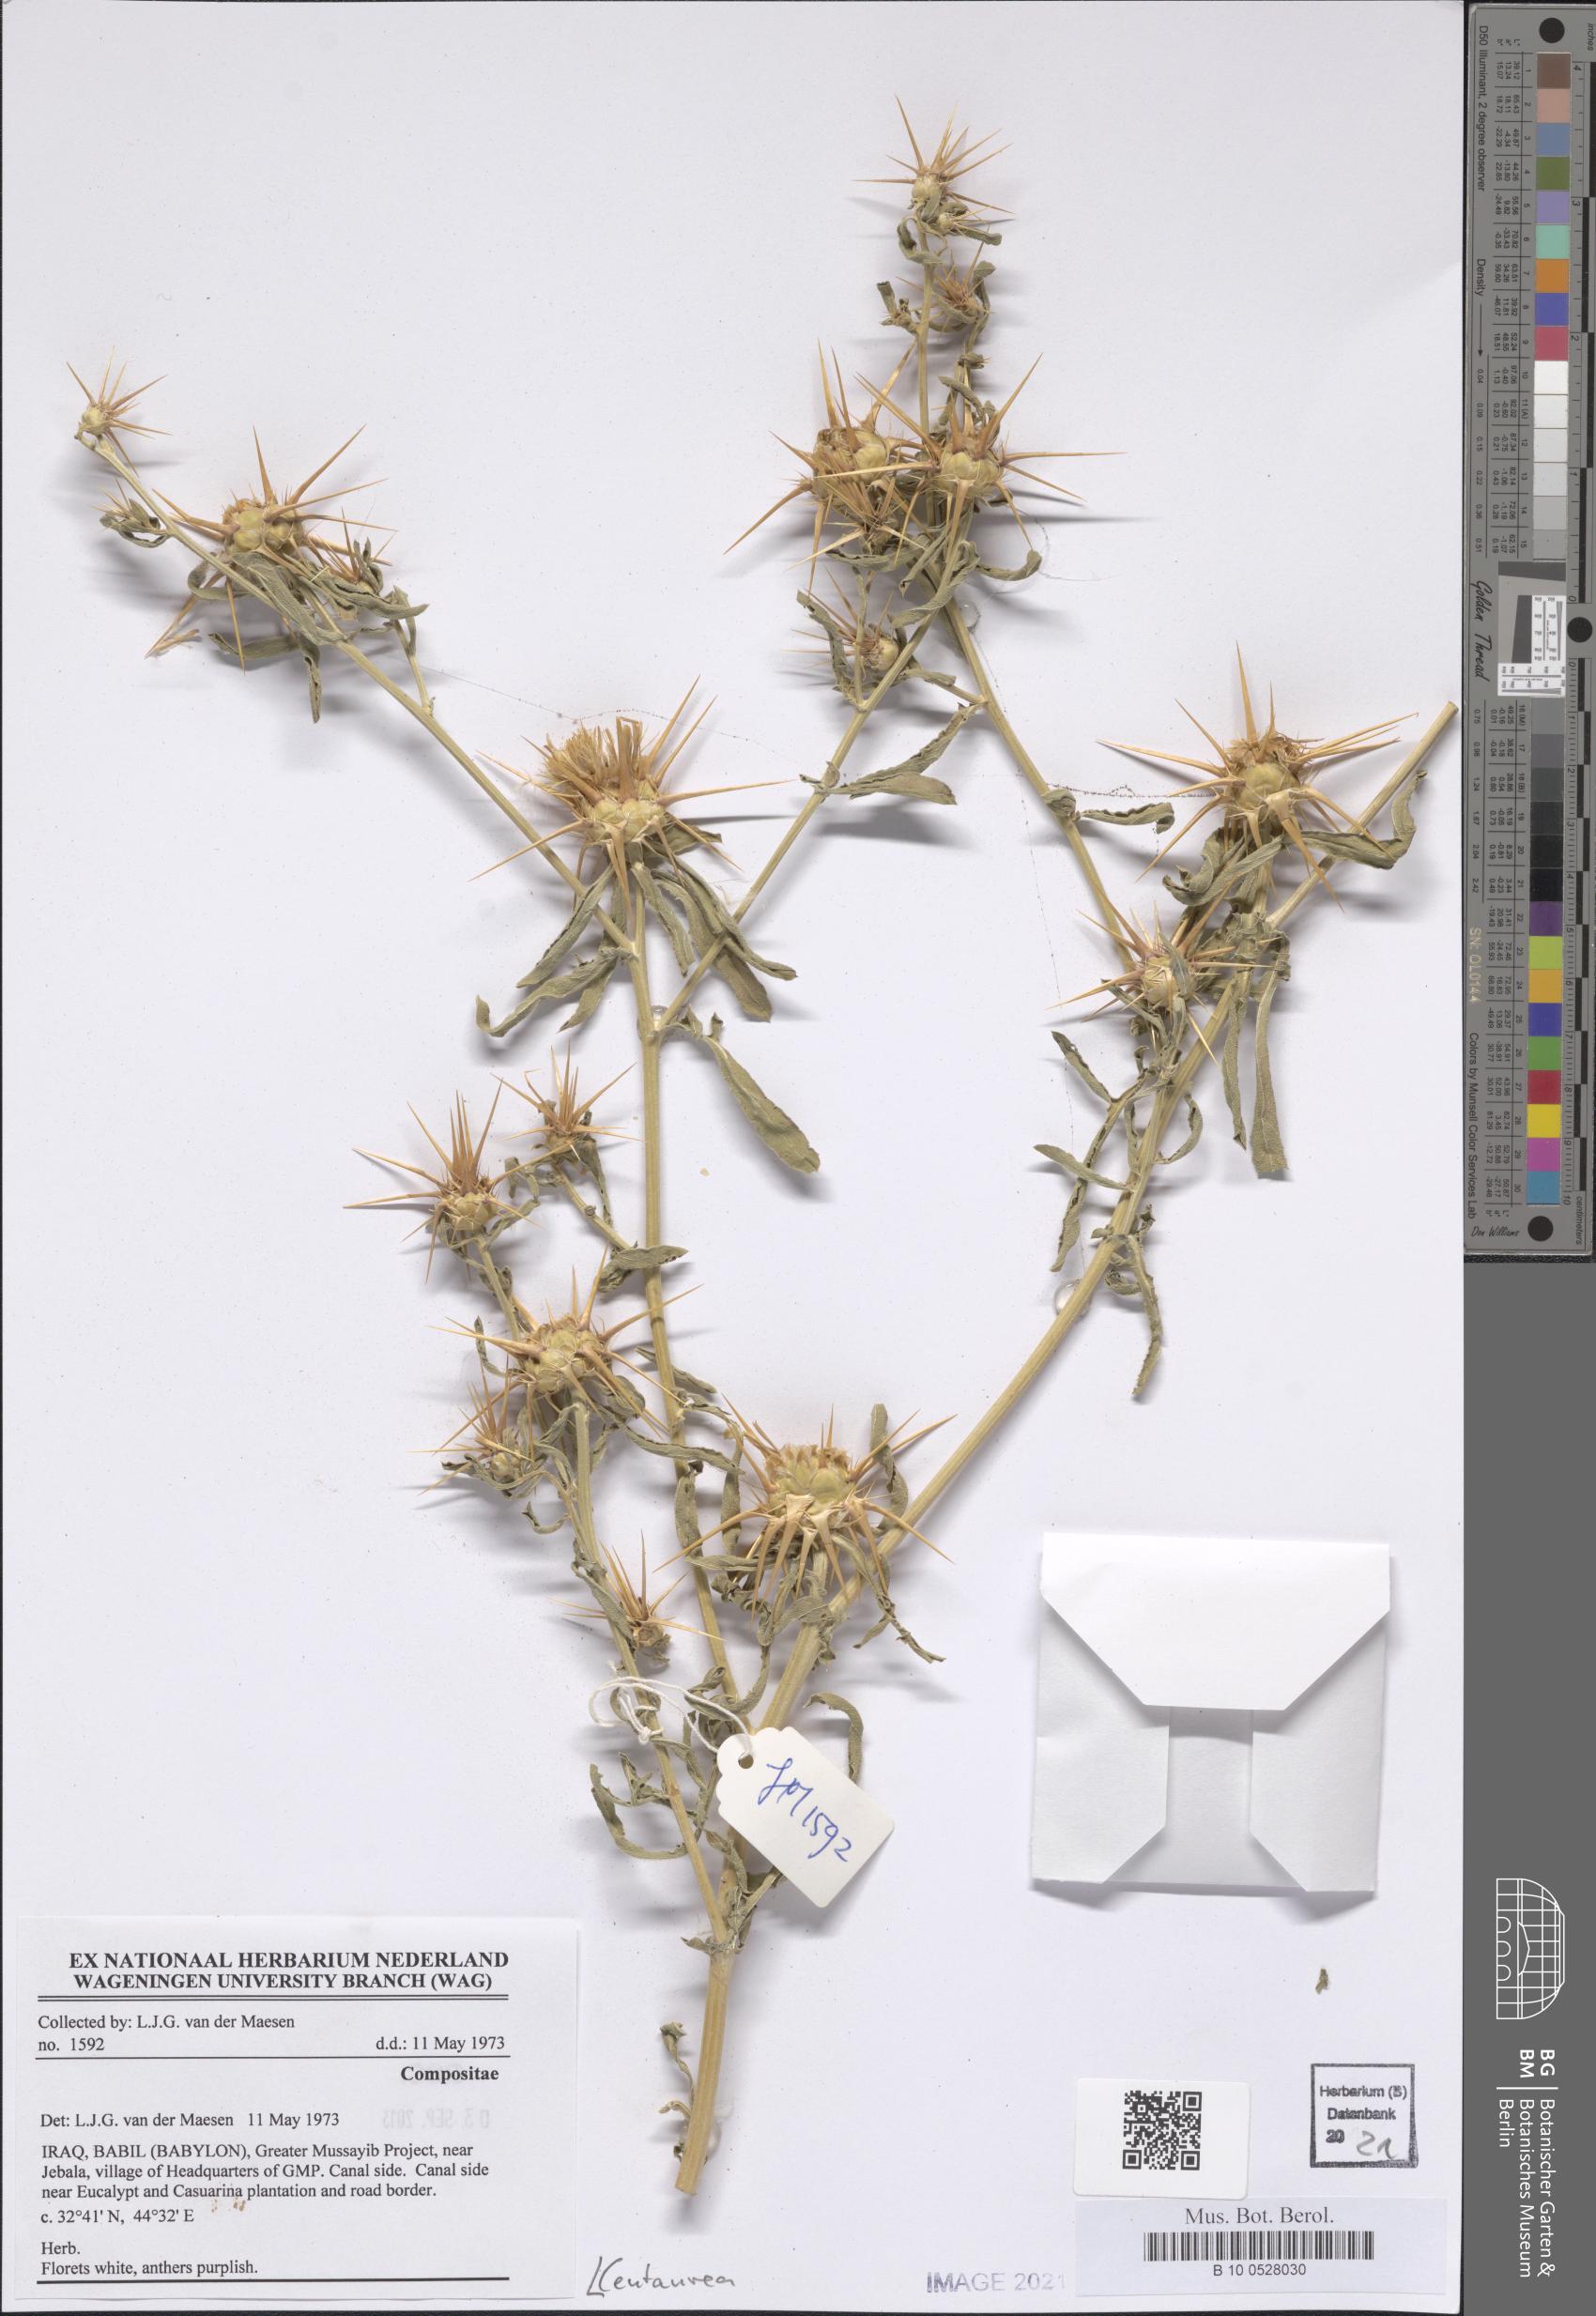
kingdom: Plantae
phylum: Tracheophyta
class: Magnoliopsida
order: Asterales
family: Asteraceae
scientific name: Asteraceae
